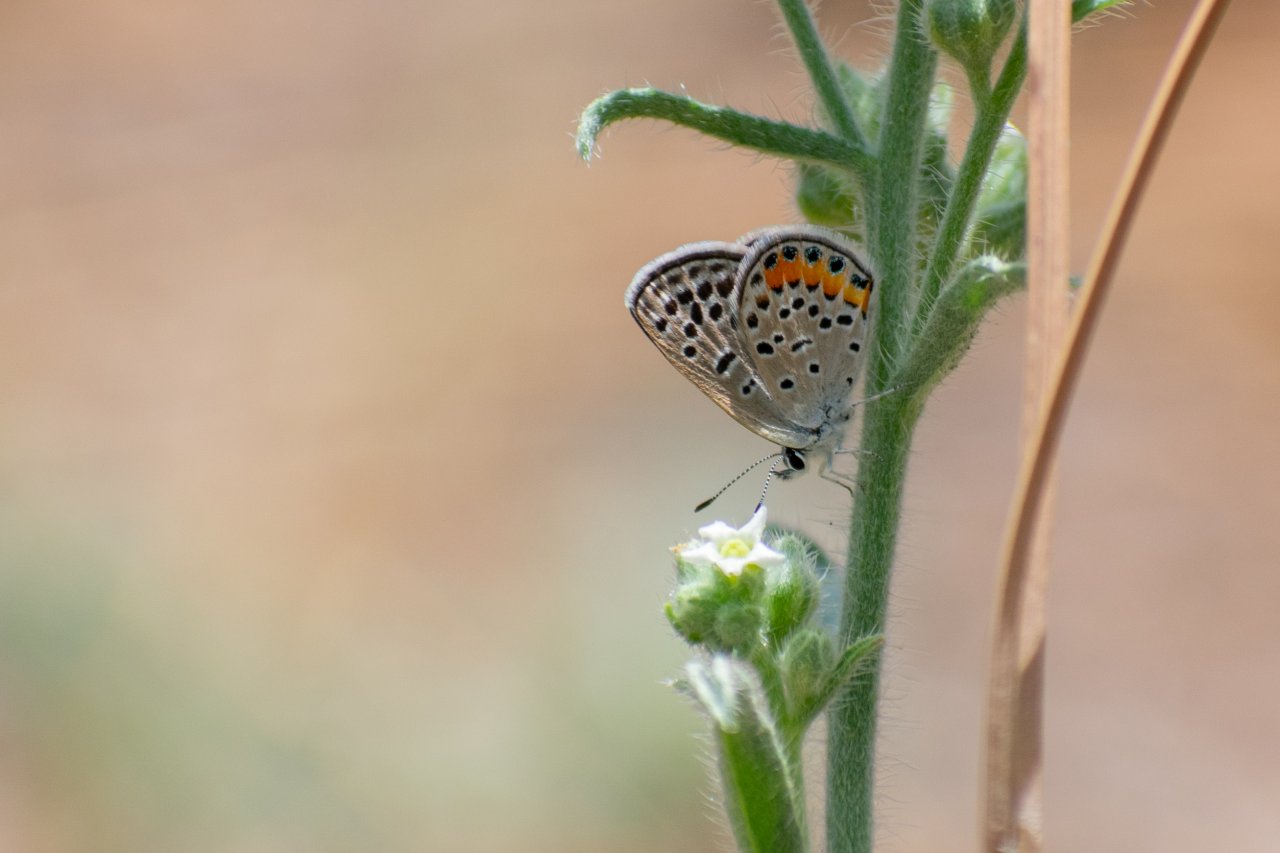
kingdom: Animalia
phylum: Arthropoda
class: Insecta
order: Lepidoptera
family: Lycaenidae
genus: Plebejus
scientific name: Plebejus acmon
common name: Acmon Blue
